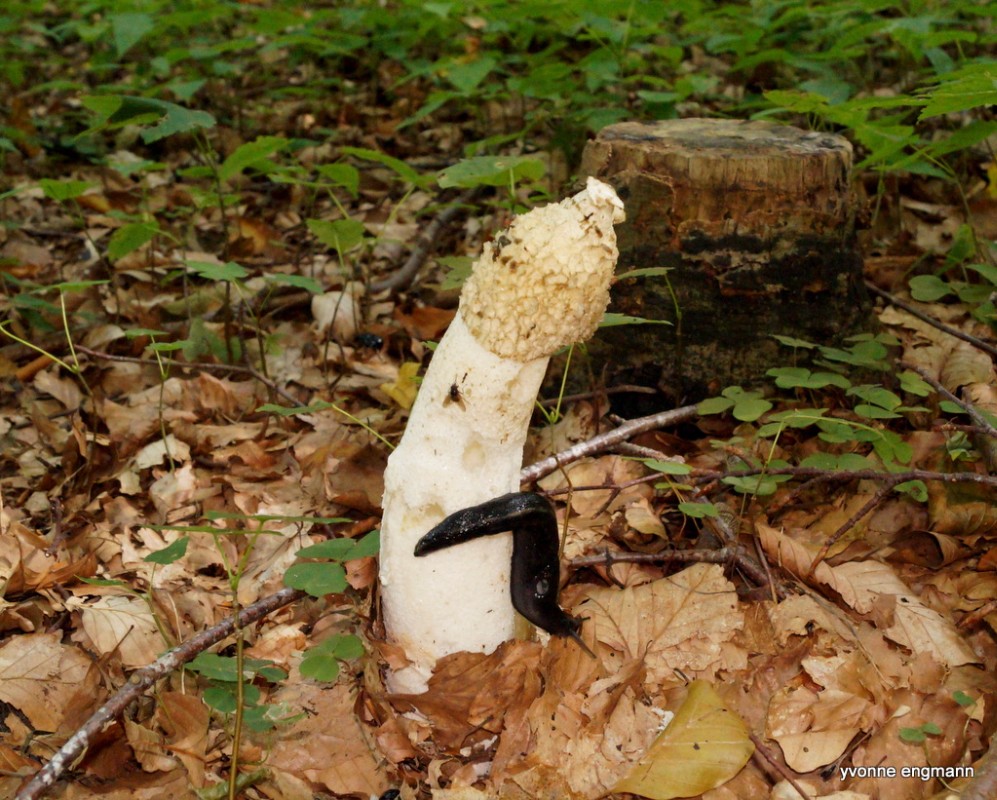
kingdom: Fungi
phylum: Basidiomycota
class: Agaricomycetes
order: Phallales
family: Phallaceae
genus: Phallus
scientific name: Phallus impudicus
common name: almindelig stinksvamp
